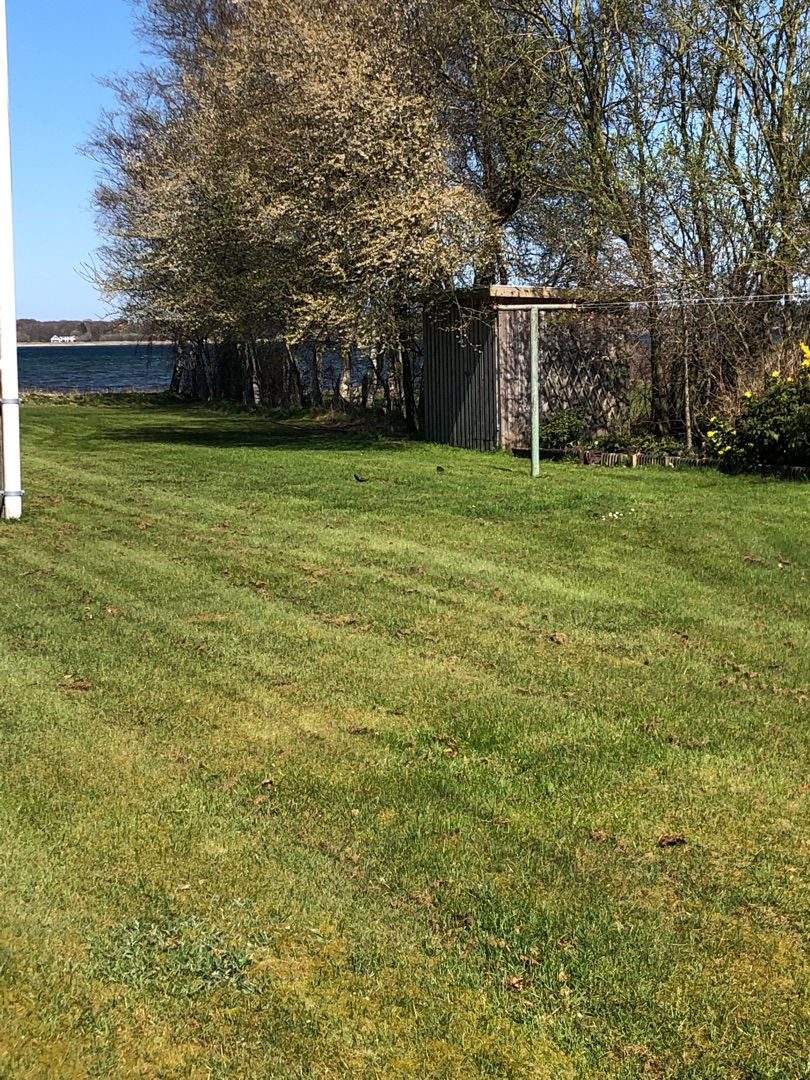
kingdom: Animalia
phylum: Chordata
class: Aves
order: Passeriformes
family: Sturnidae
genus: Sturnus
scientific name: Sturnus vulgaris
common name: Stær
